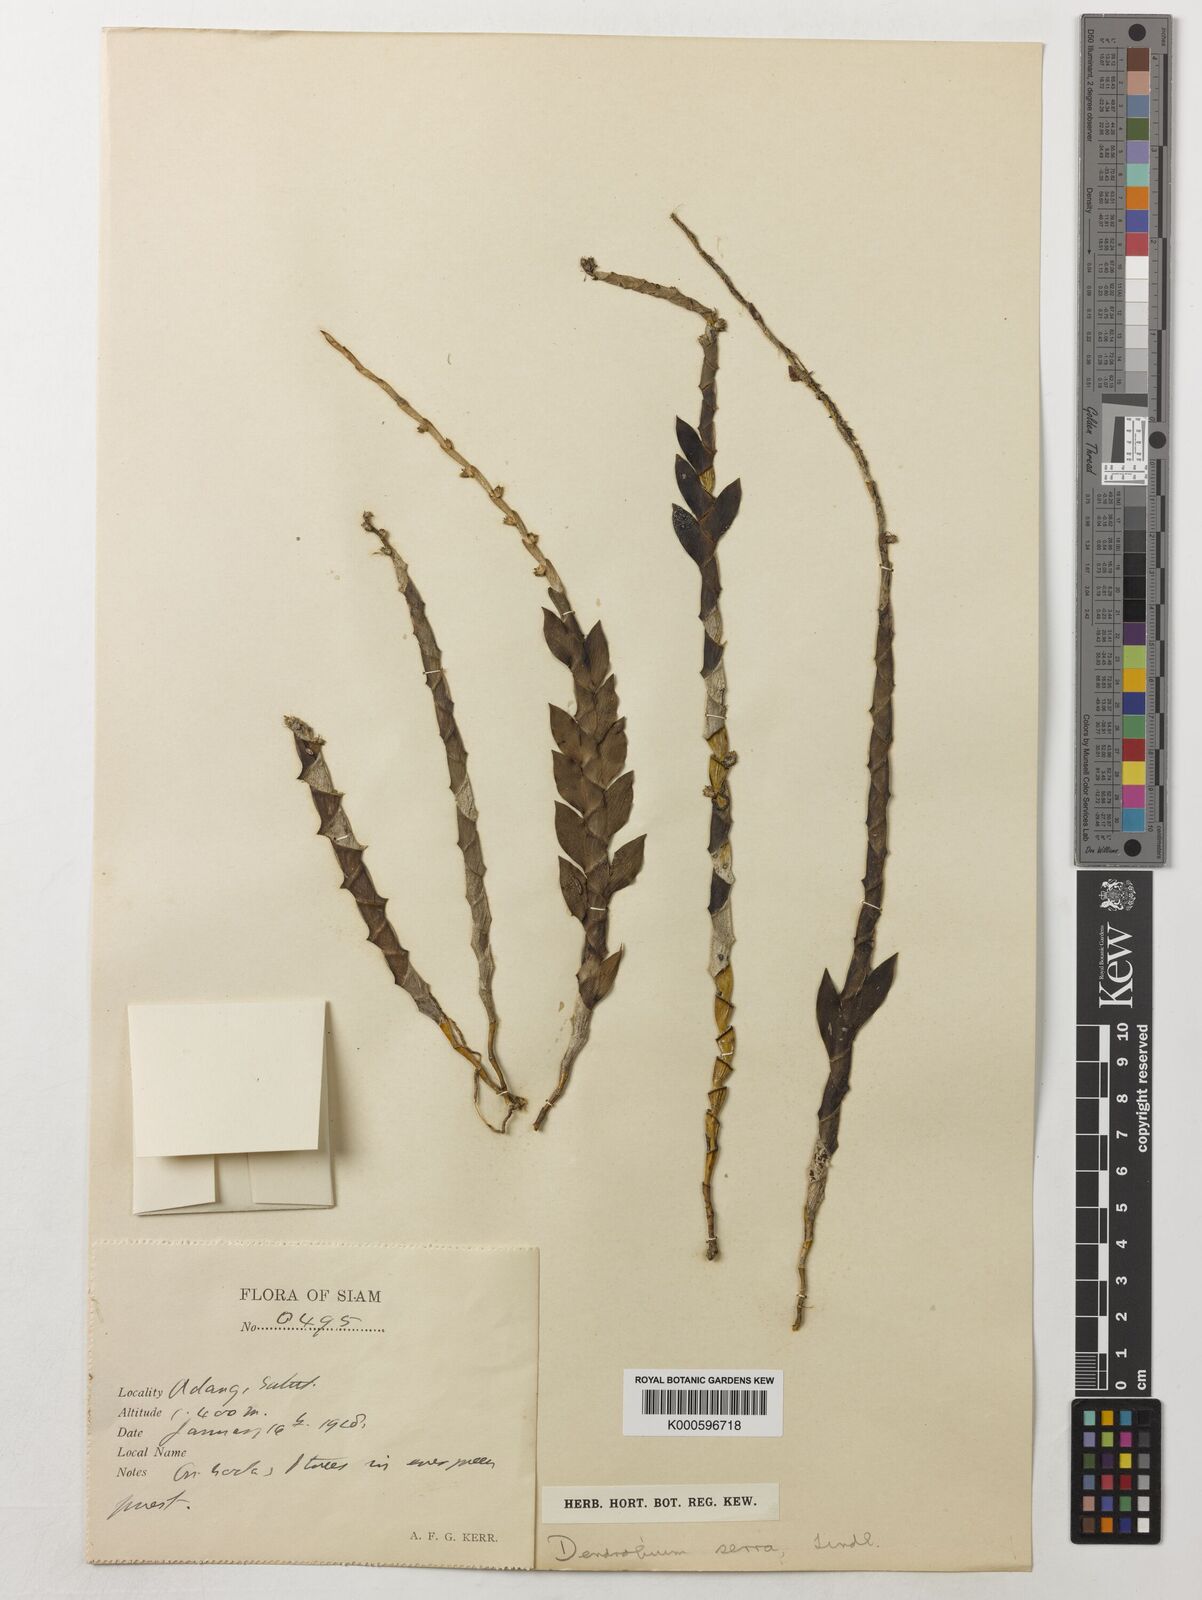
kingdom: Plantae
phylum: Tracheophyta
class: Liliopsida
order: Asparagales
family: Orchidaceae
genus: Dendrobium
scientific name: Dendrobium aloifolium
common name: Aloe-like dendrobium
